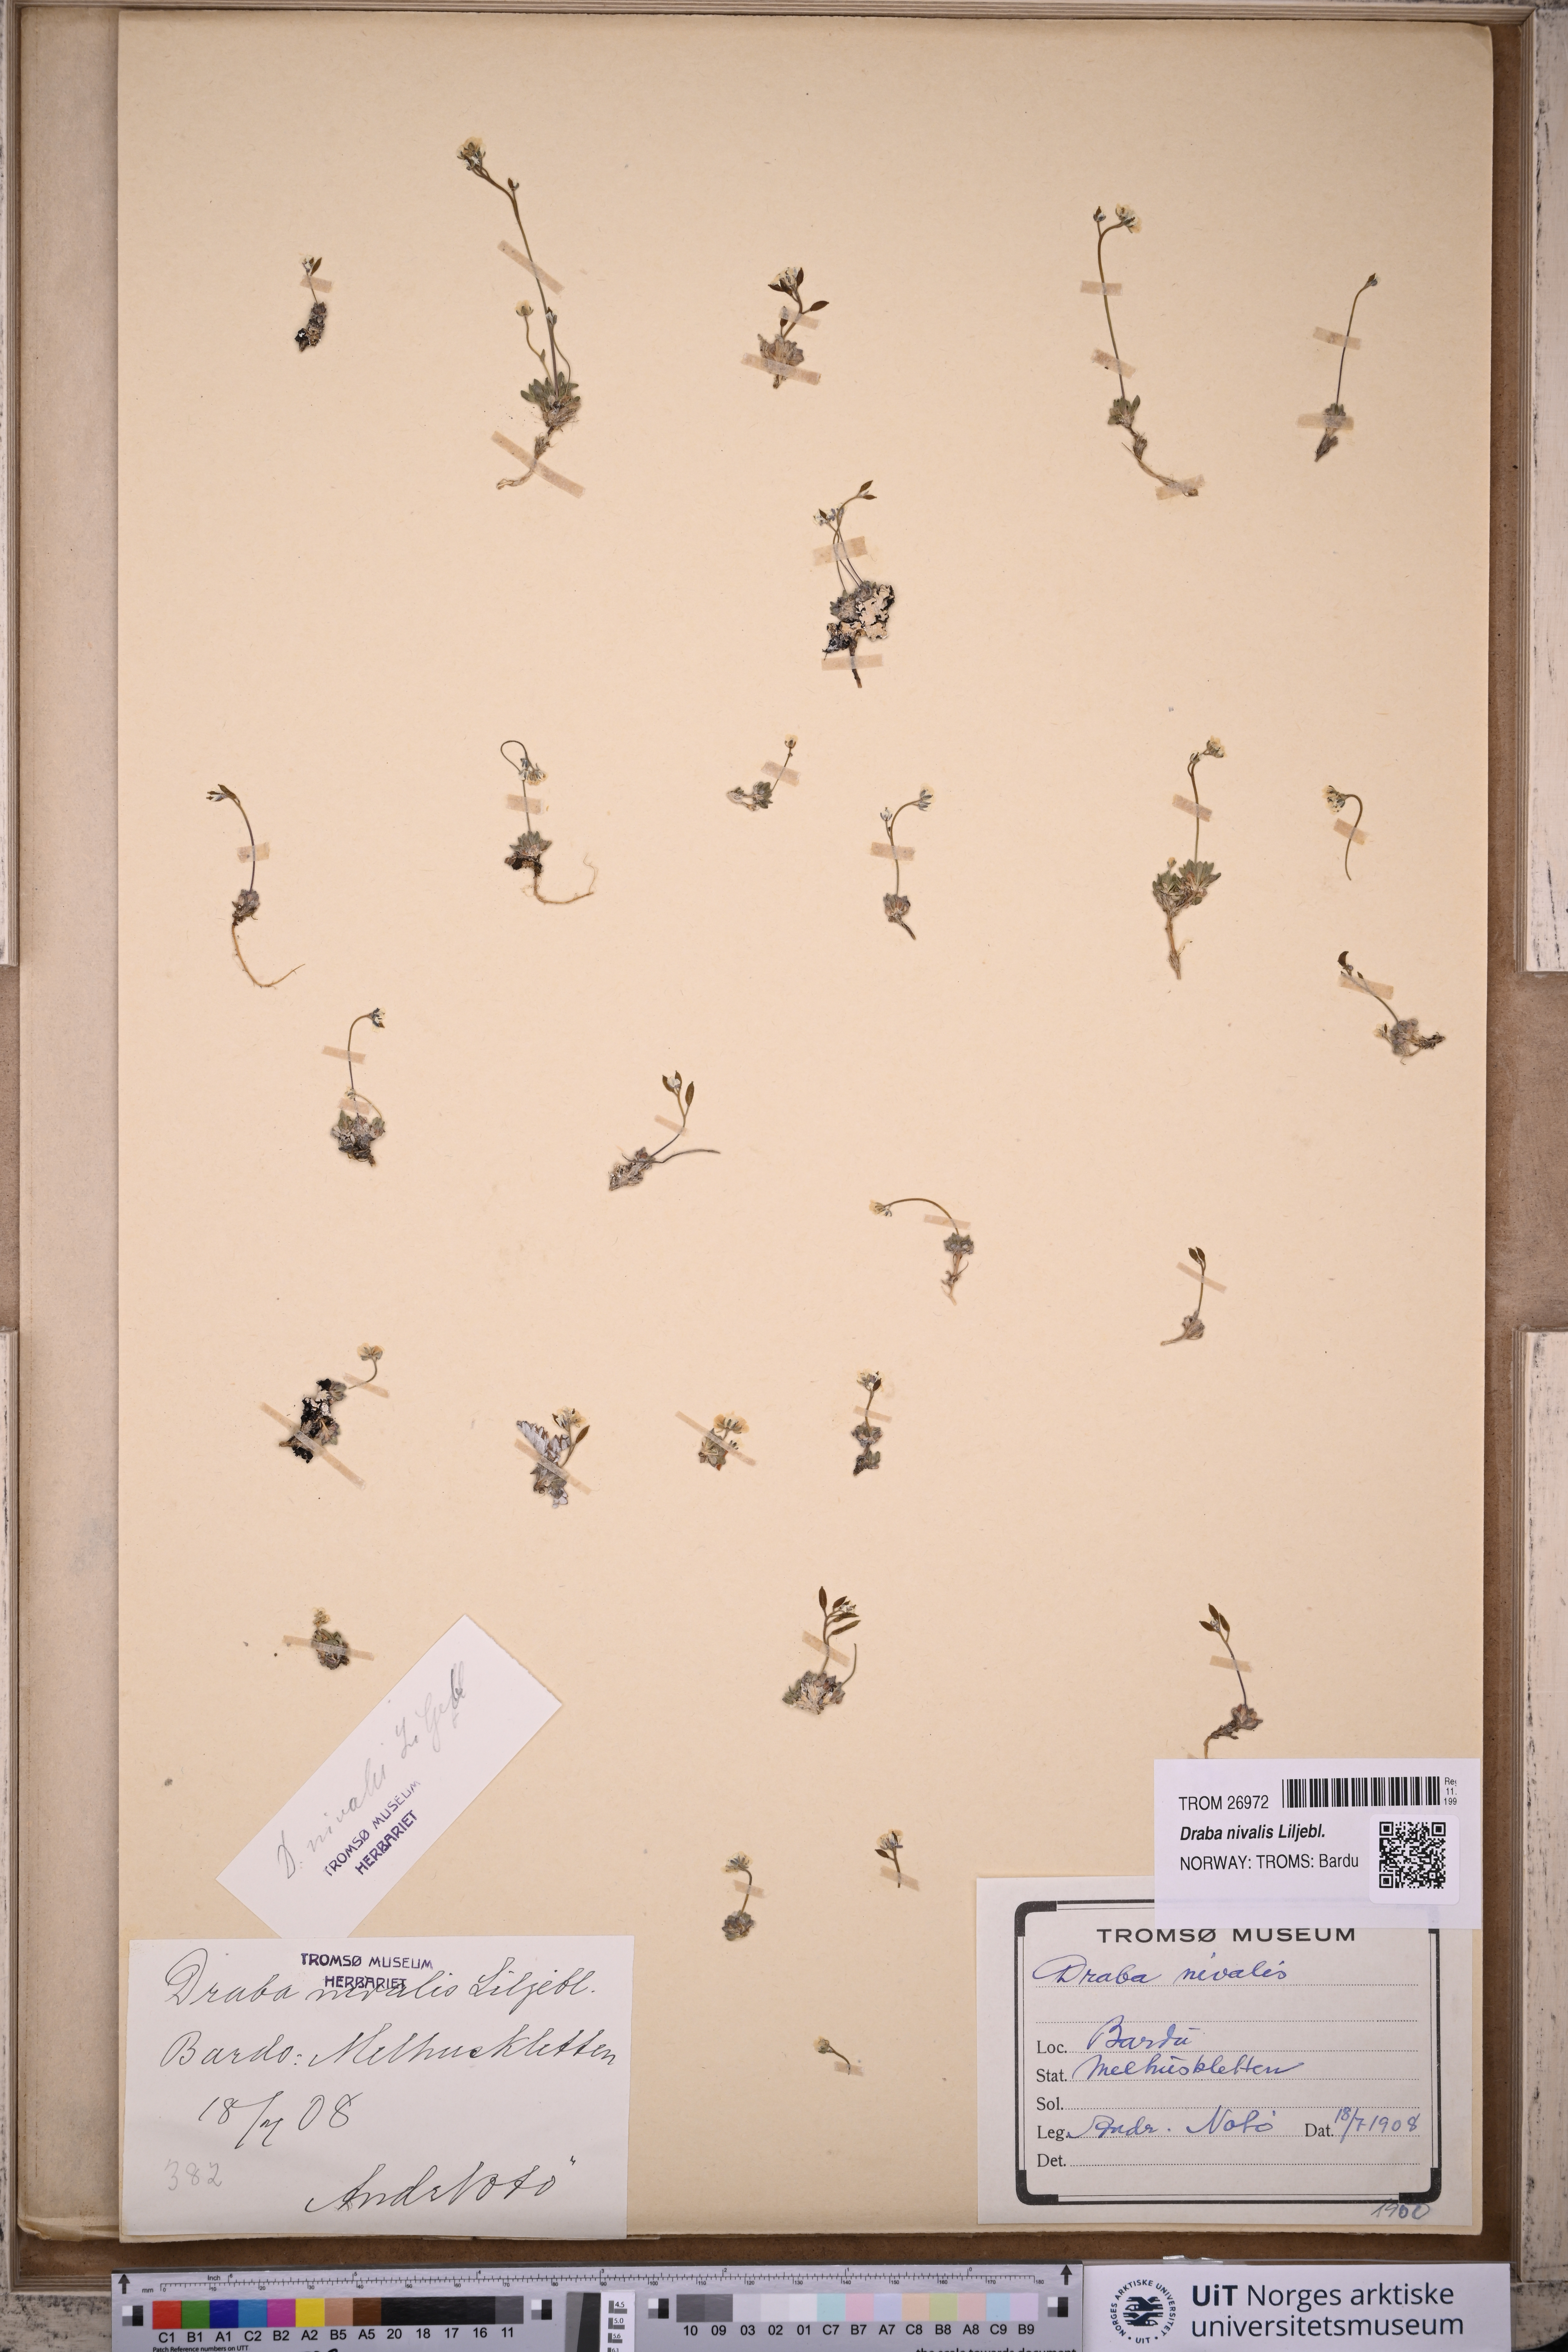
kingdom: Plantae
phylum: Tracheophyta
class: Magnoliopsida
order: Brassicales
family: Brassicaceae
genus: Draba
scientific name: Draba nivalis
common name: Snow draba
